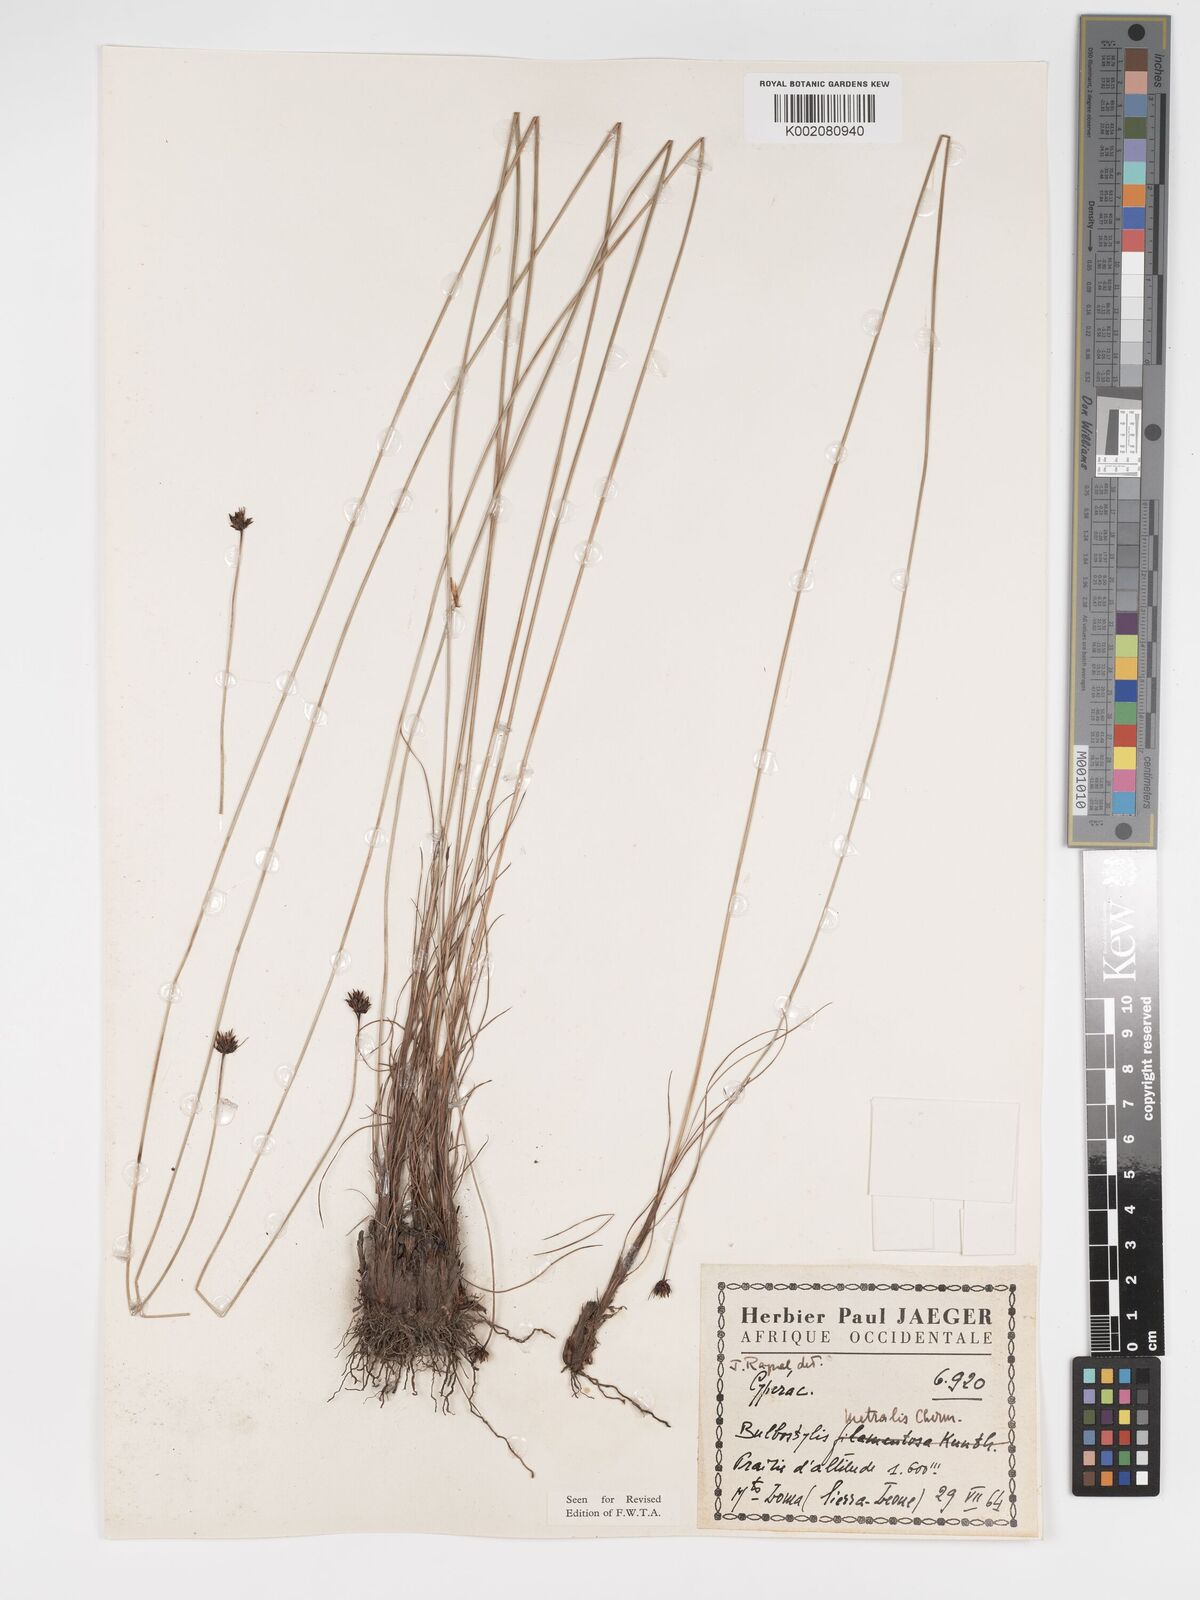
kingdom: Plantae
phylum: Tracheophyta
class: Liliopsida
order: Poales
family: Cyperaceae
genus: Bulbostylis
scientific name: Bulbostylis filamentosa
